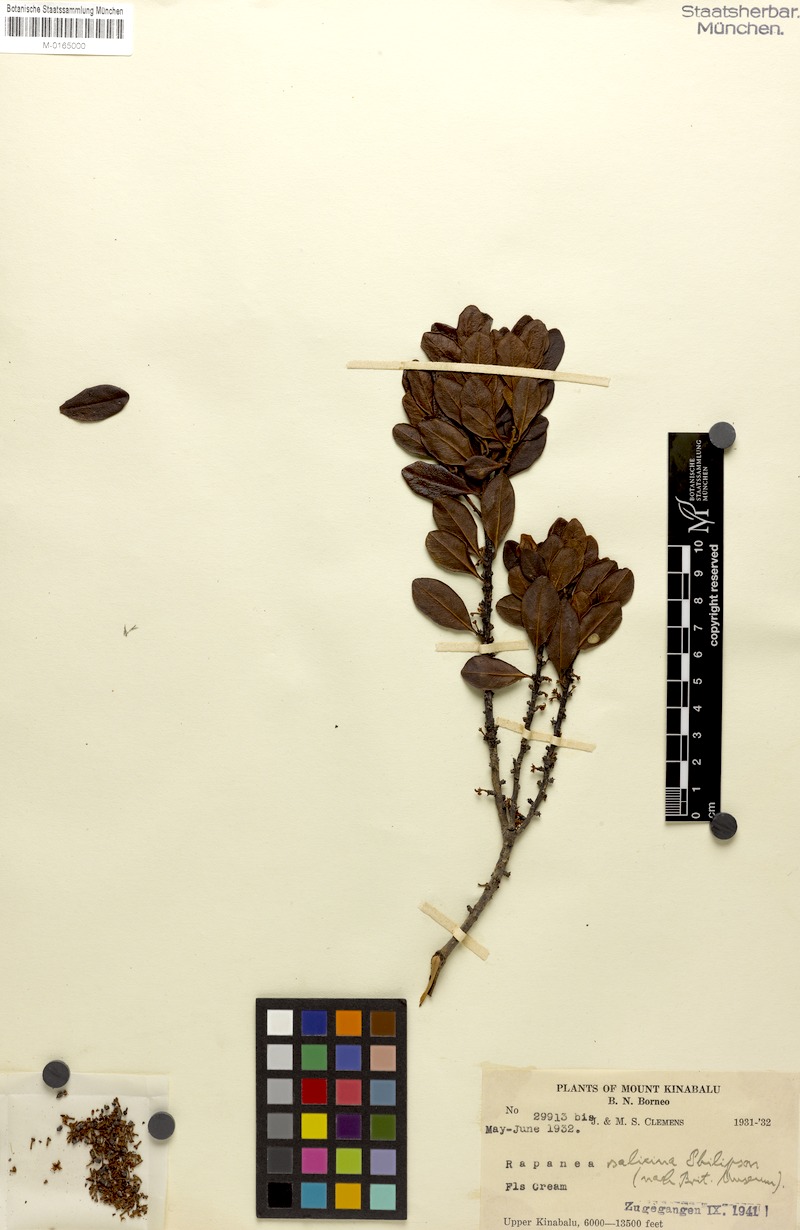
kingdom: Plantae
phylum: Tracheophyta
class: Magnoliopsida
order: Ericales
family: Primulaceae
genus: Myrsine
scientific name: Myrsine
